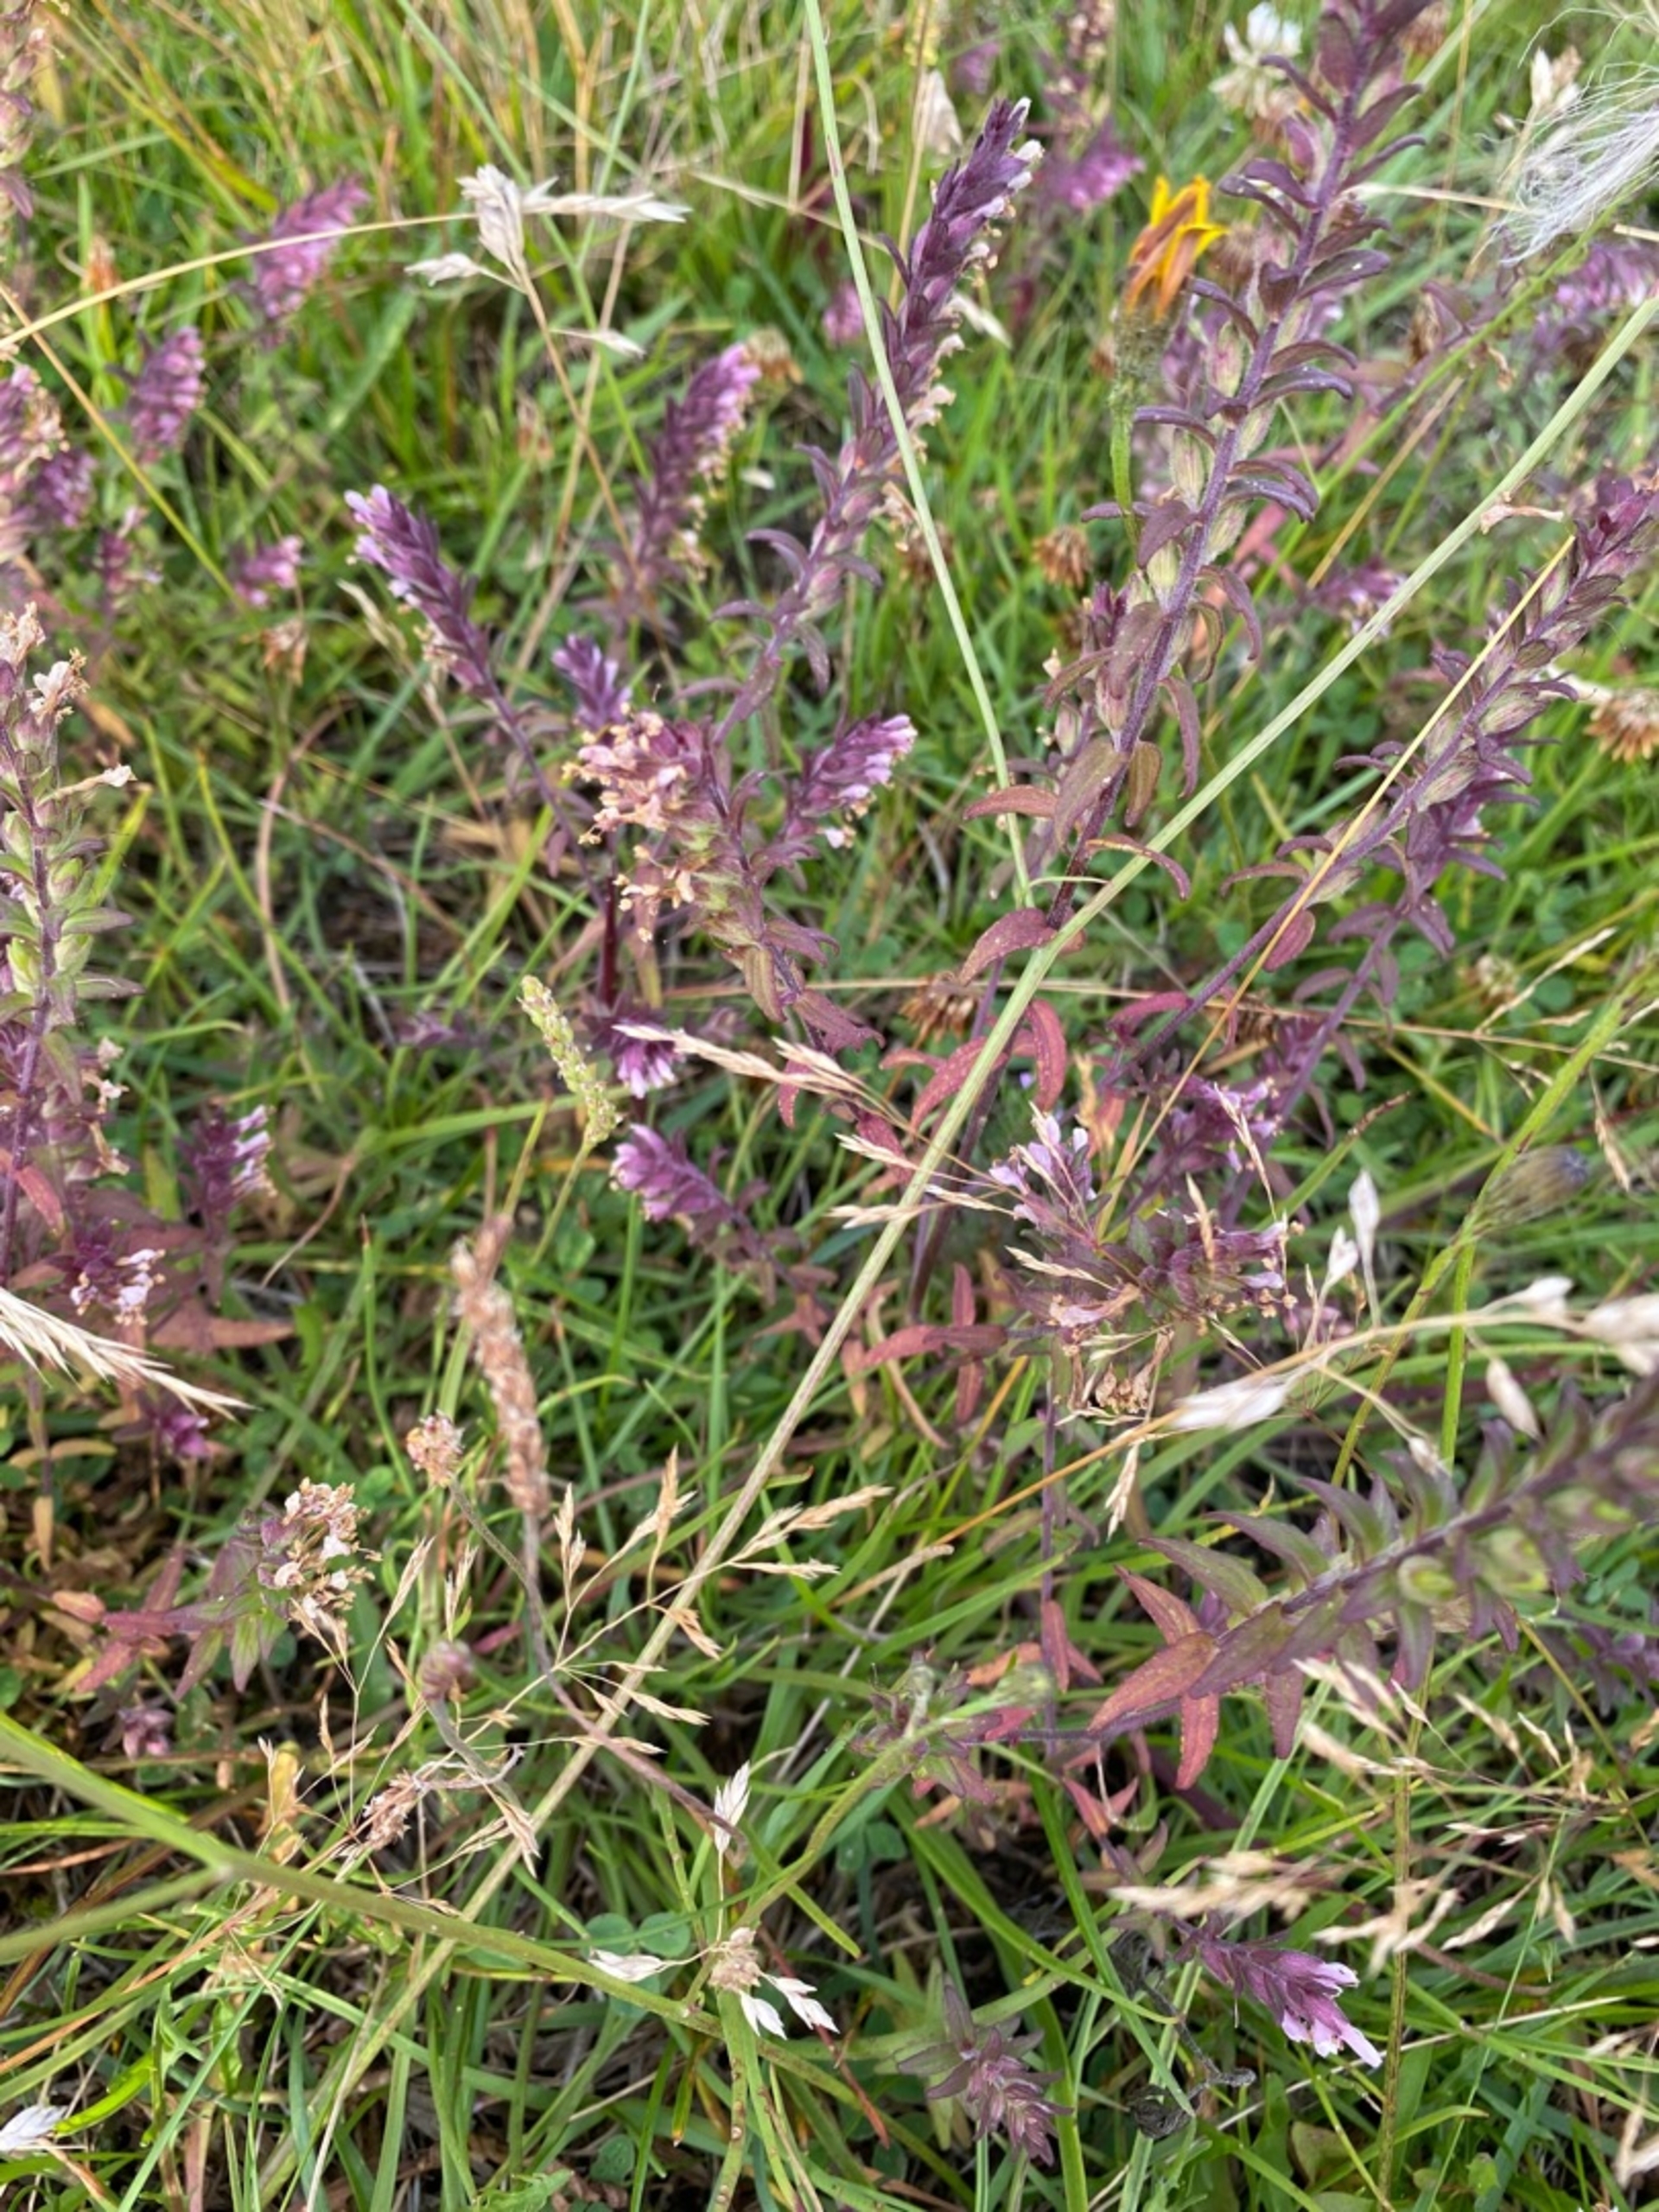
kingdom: Plantae
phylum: Tracheophyta
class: Magnoliopsida
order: Lamiales
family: Orobanchaceae
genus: Odontites
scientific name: Odontites vulgaris
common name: Høst-rødtop
